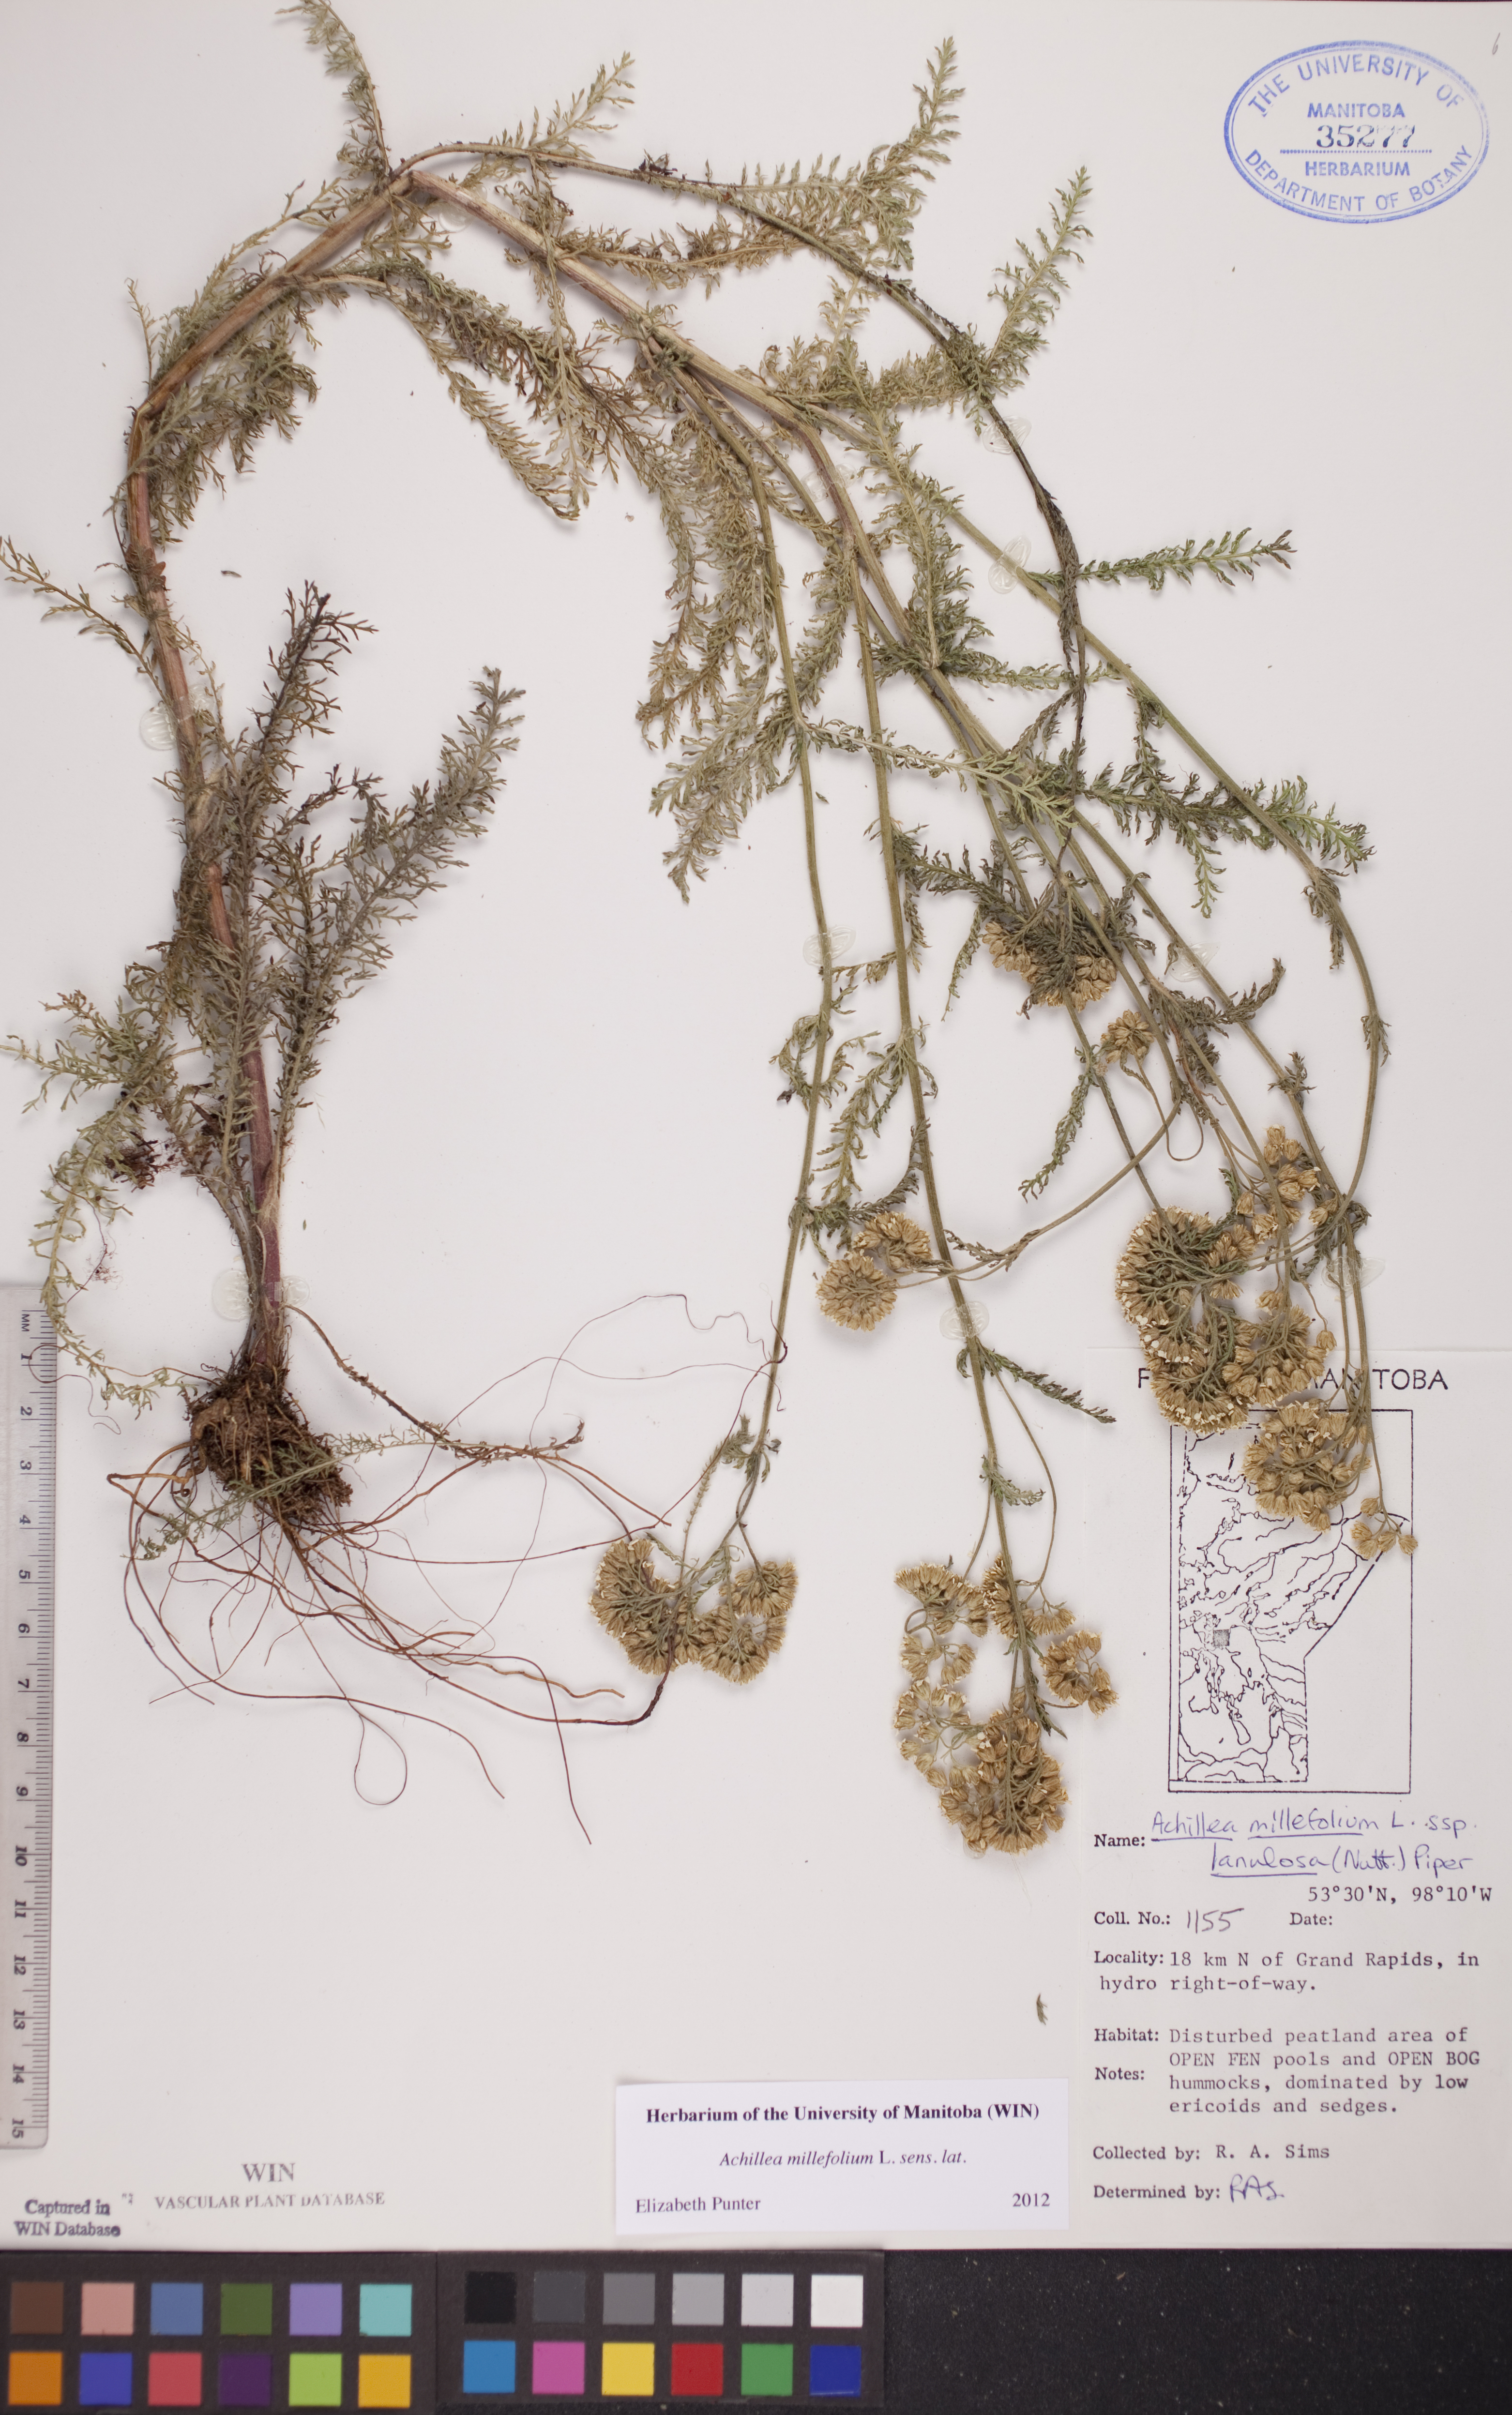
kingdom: Plantae
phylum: Tracheophyta
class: Magnoliopsida
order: Asterales
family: Asteraceae
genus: Achillea
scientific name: Achillea millefolium
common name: Yarrow
